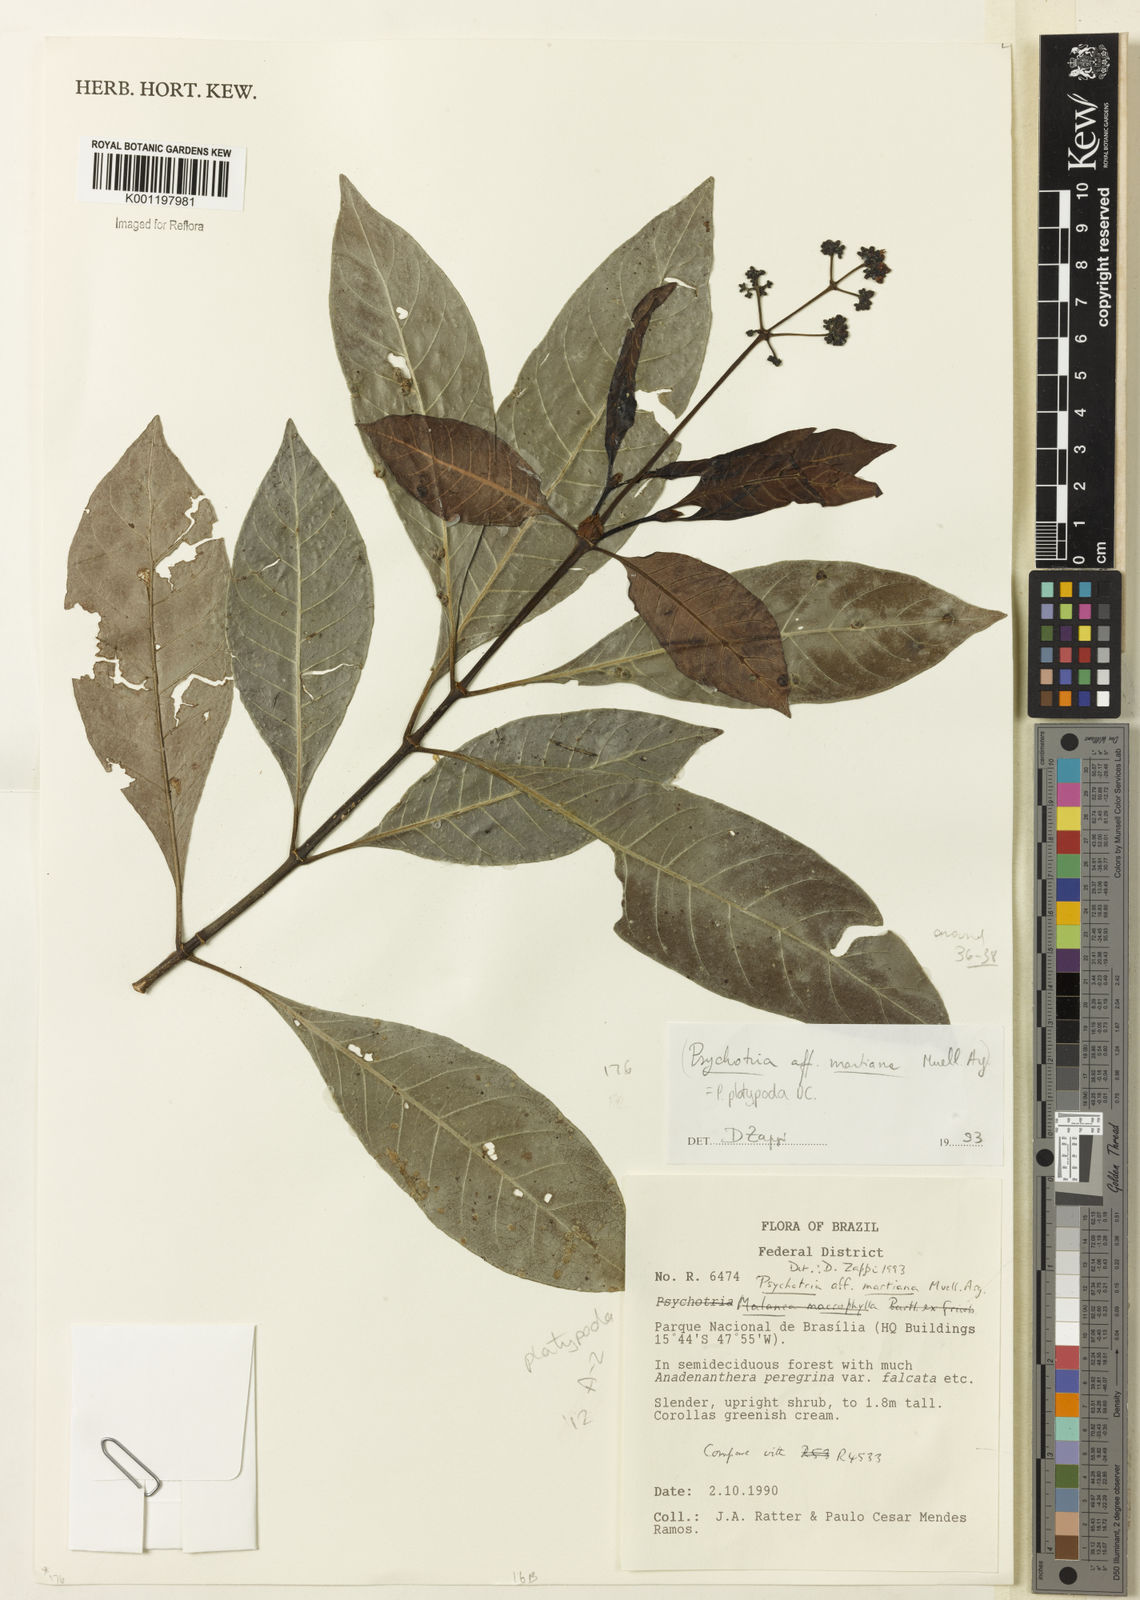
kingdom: Plantae
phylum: Tracheophyta
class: Magnoliopsida
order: Gentianales
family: Rubiaceae
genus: Palicourea
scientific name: Palicourea dichotoma
